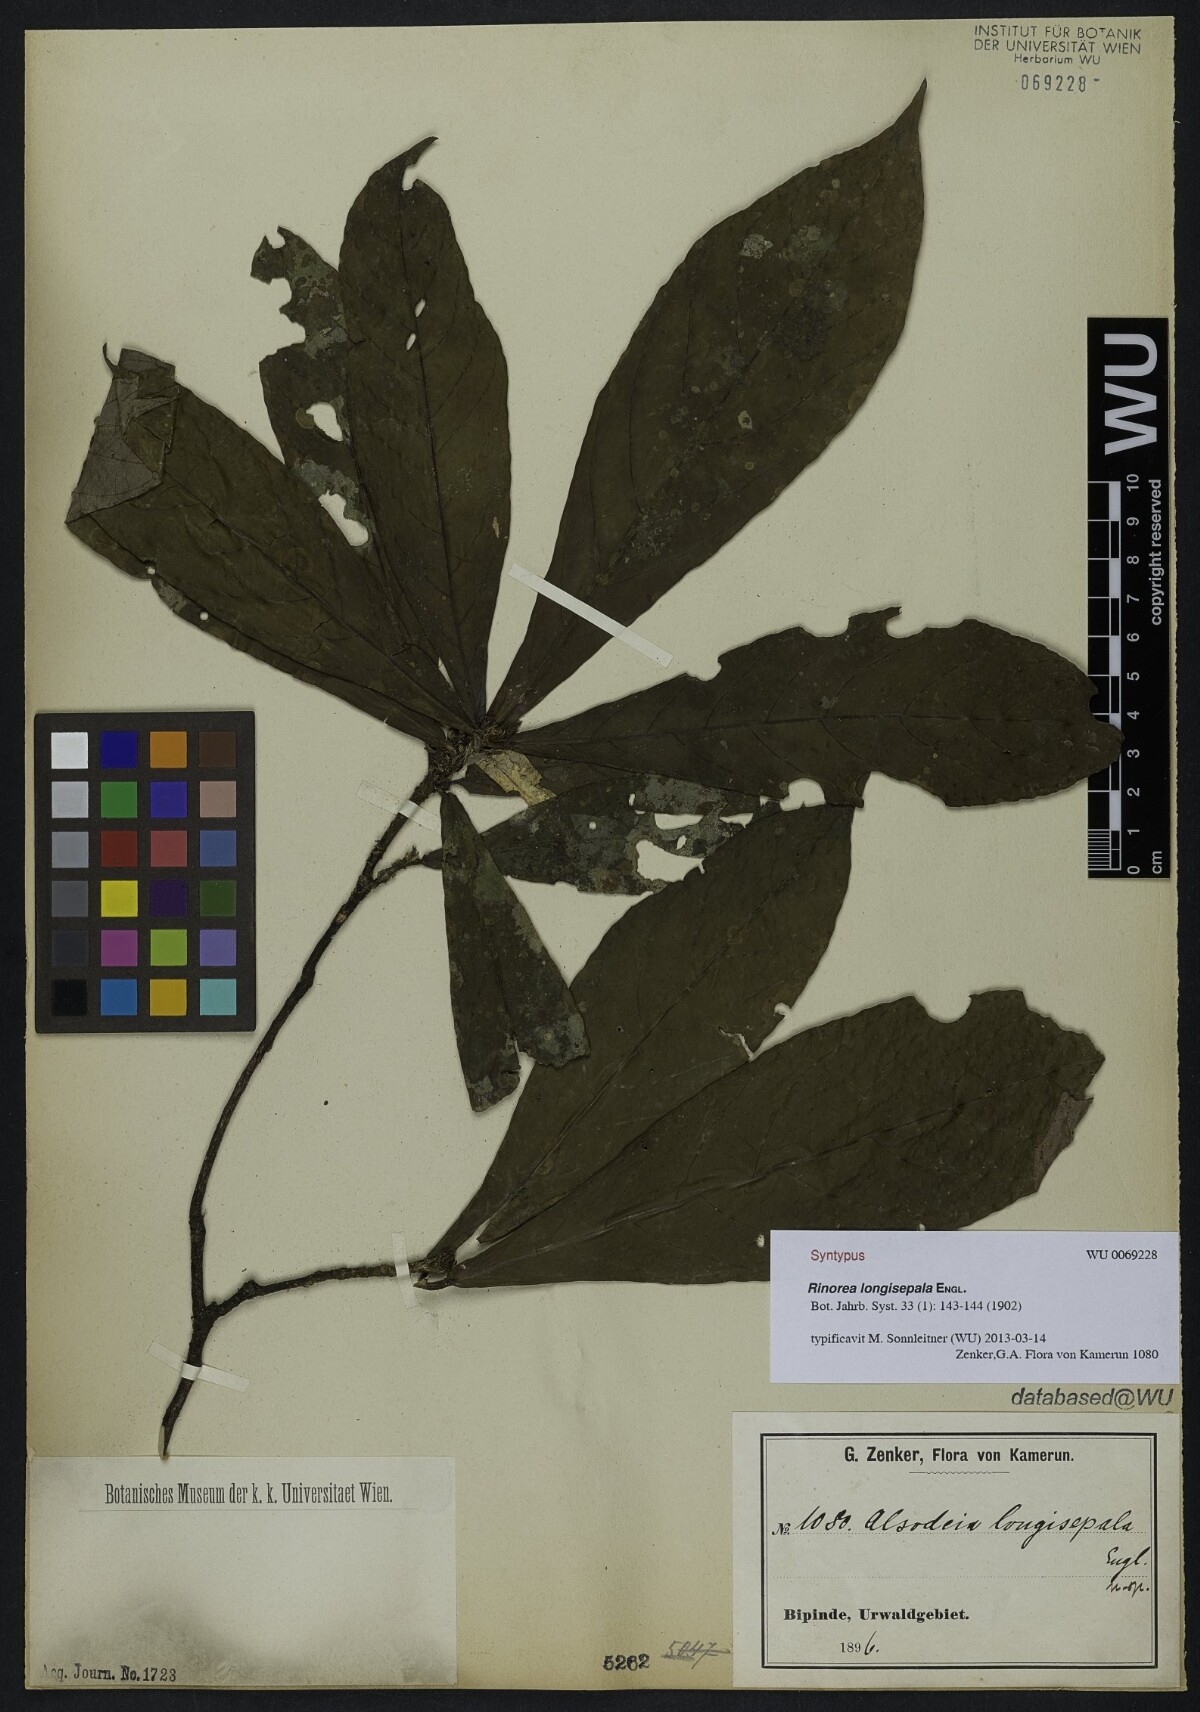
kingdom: Plantae
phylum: Tracheophyta
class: Magnoliopsida
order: Malpighiales
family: Violaceae
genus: Rinorea
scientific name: Rinorea longisepala
